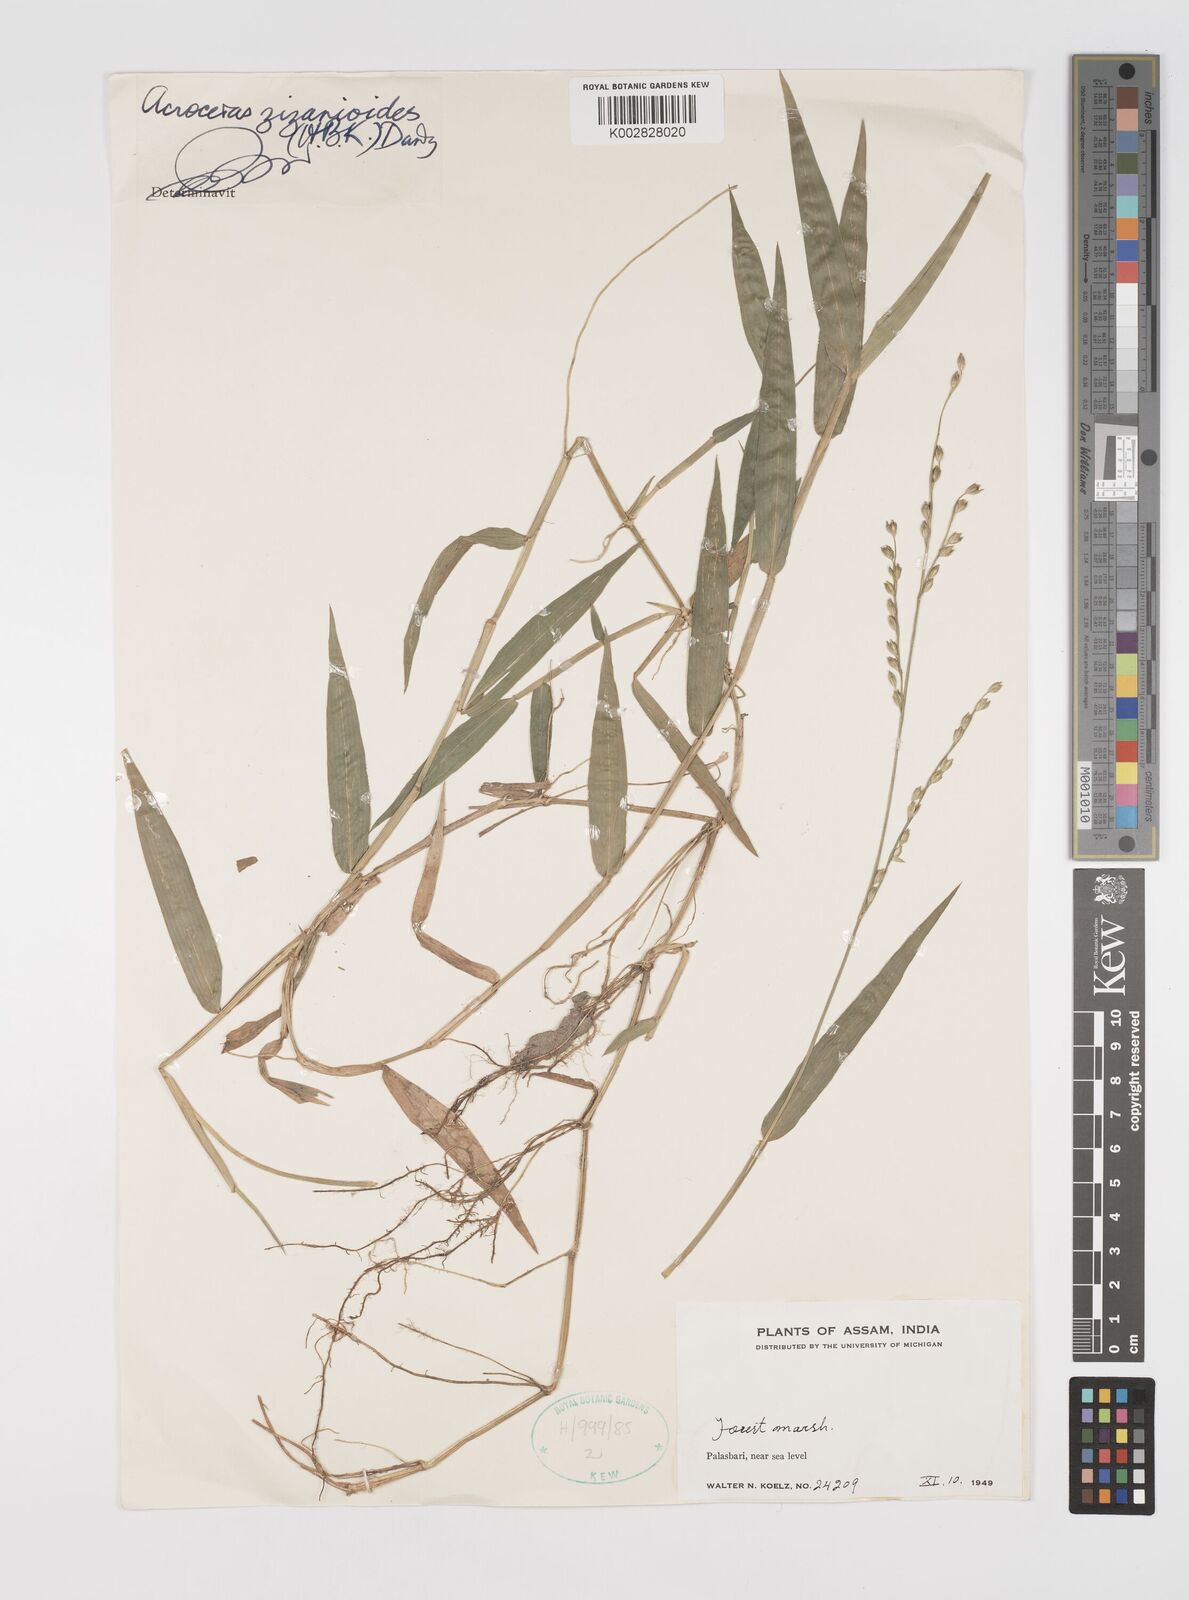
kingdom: Plantae
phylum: Tracheophyta
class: Liliopsida
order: Poales
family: Poaceae
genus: Acroceras
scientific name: Acroceras
